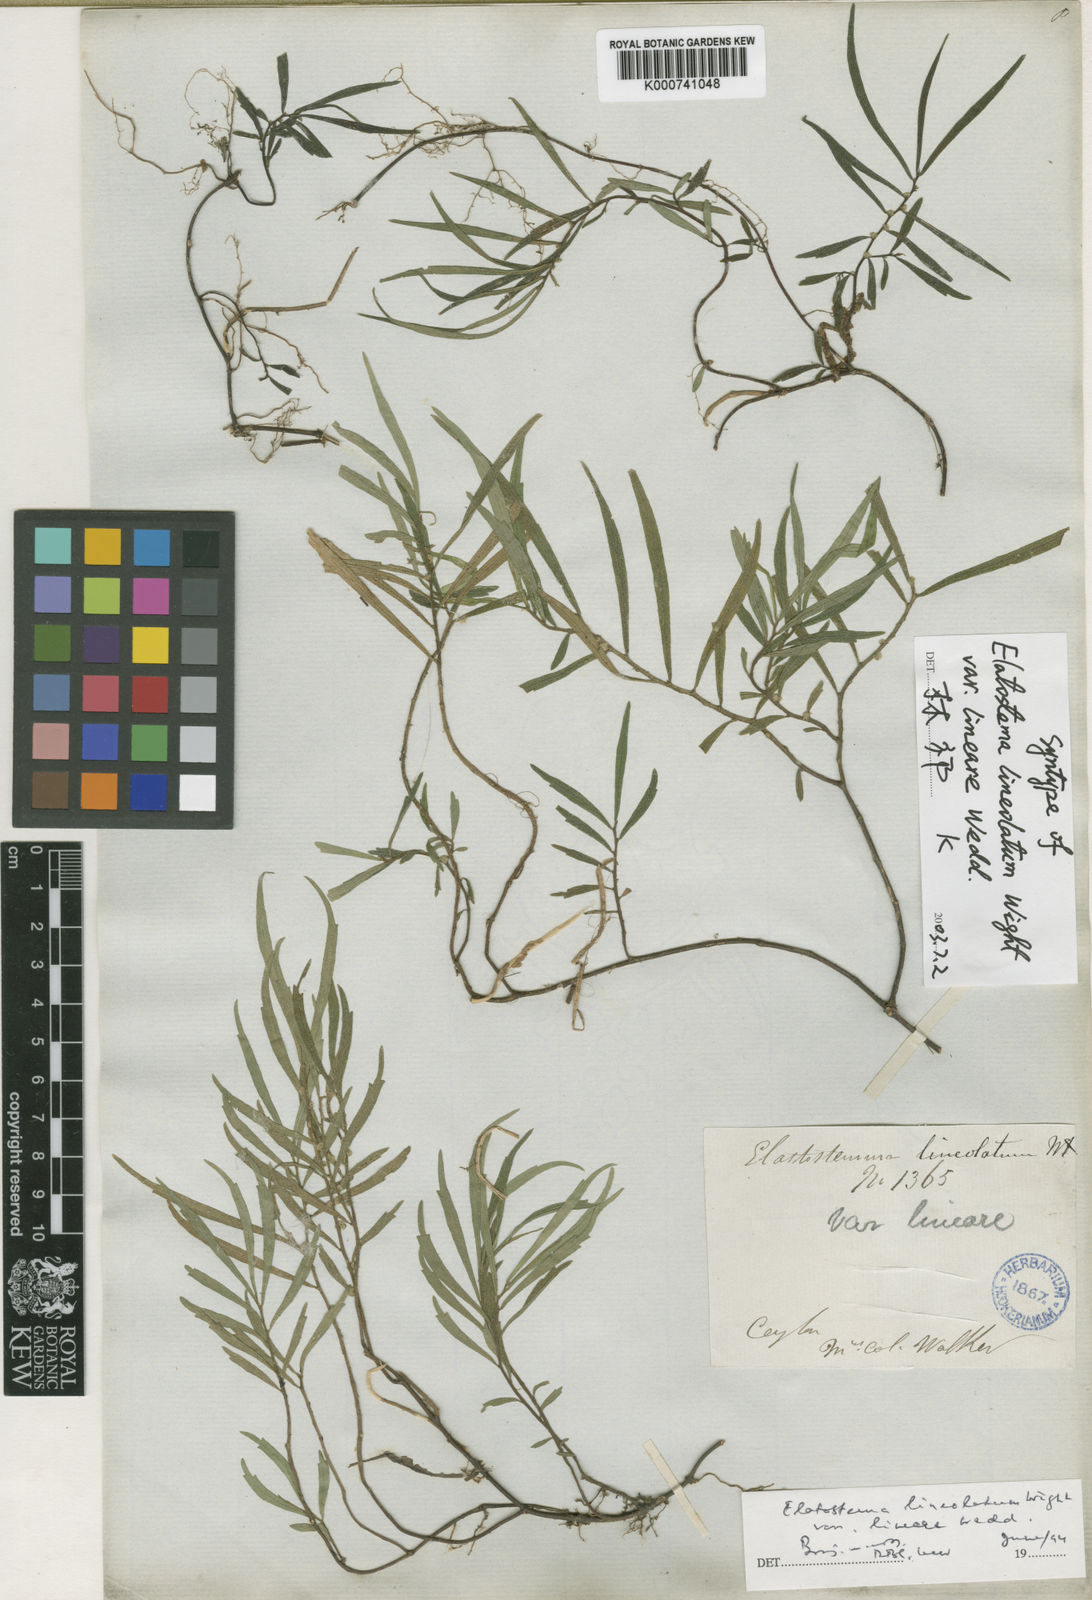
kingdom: Plantae
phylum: Tracheophyta
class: Magnoliopsida
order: Rosales
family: Urticaceae
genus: Elatostema
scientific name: Elatostema lineolatum
